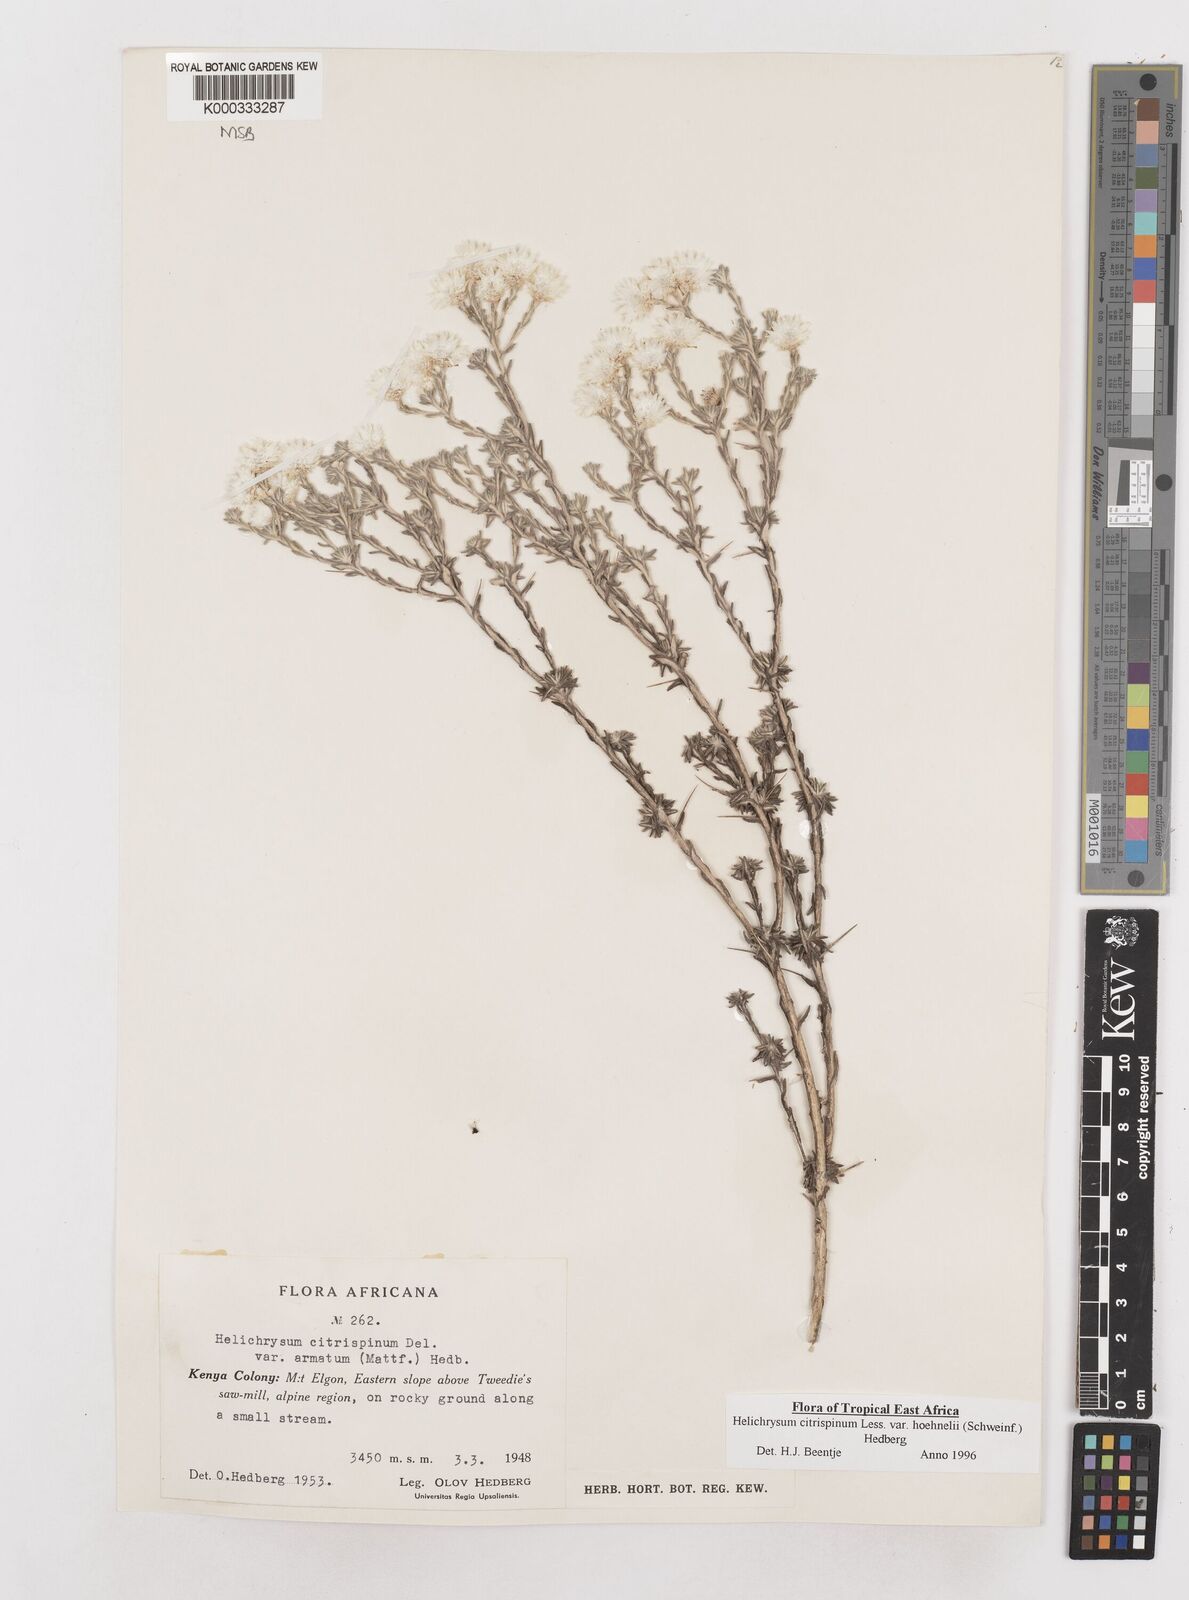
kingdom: Plantae
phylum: Tracheophyta
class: Magnoliopsida
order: Asterales
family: Asteraceae
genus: Helichrysum
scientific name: Helichrysum citrispinum
